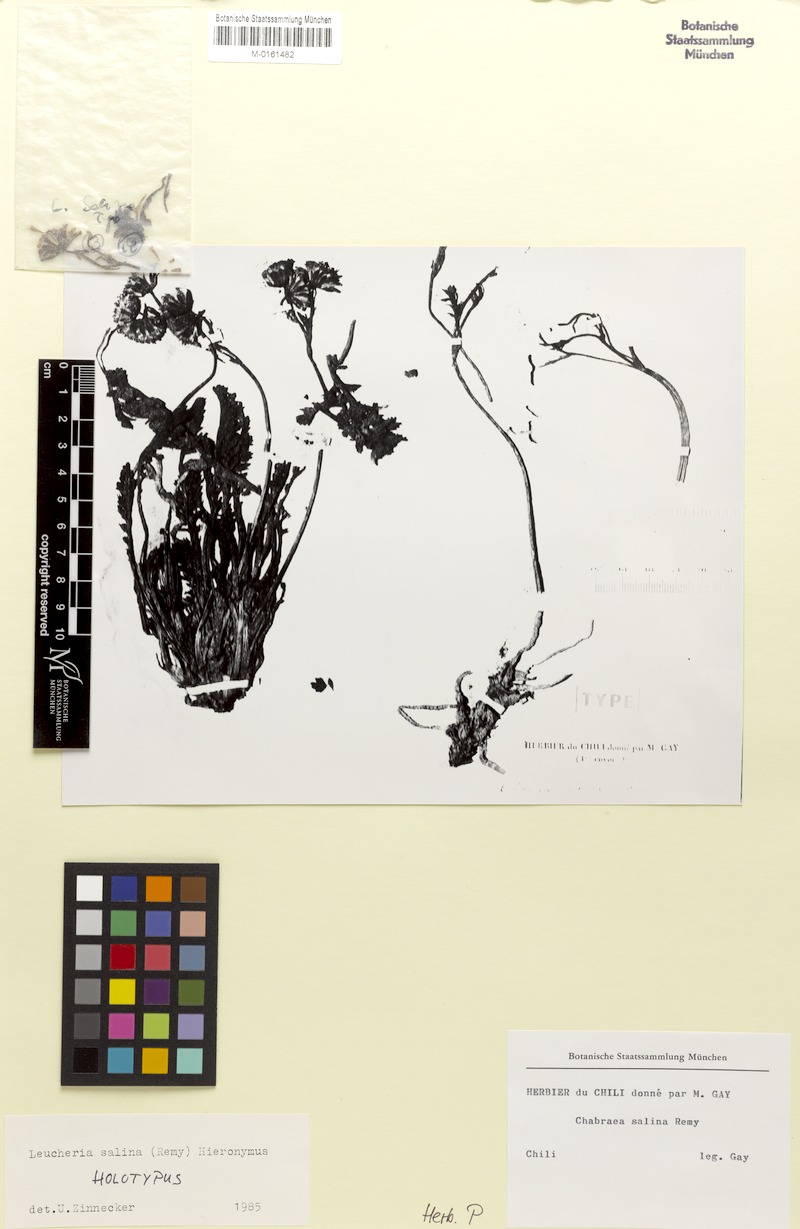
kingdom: Plantae
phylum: Tracheophyta
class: Magnoliopsida
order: Asterales
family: Asteraceae
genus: Leucheria
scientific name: Leucheria salina
